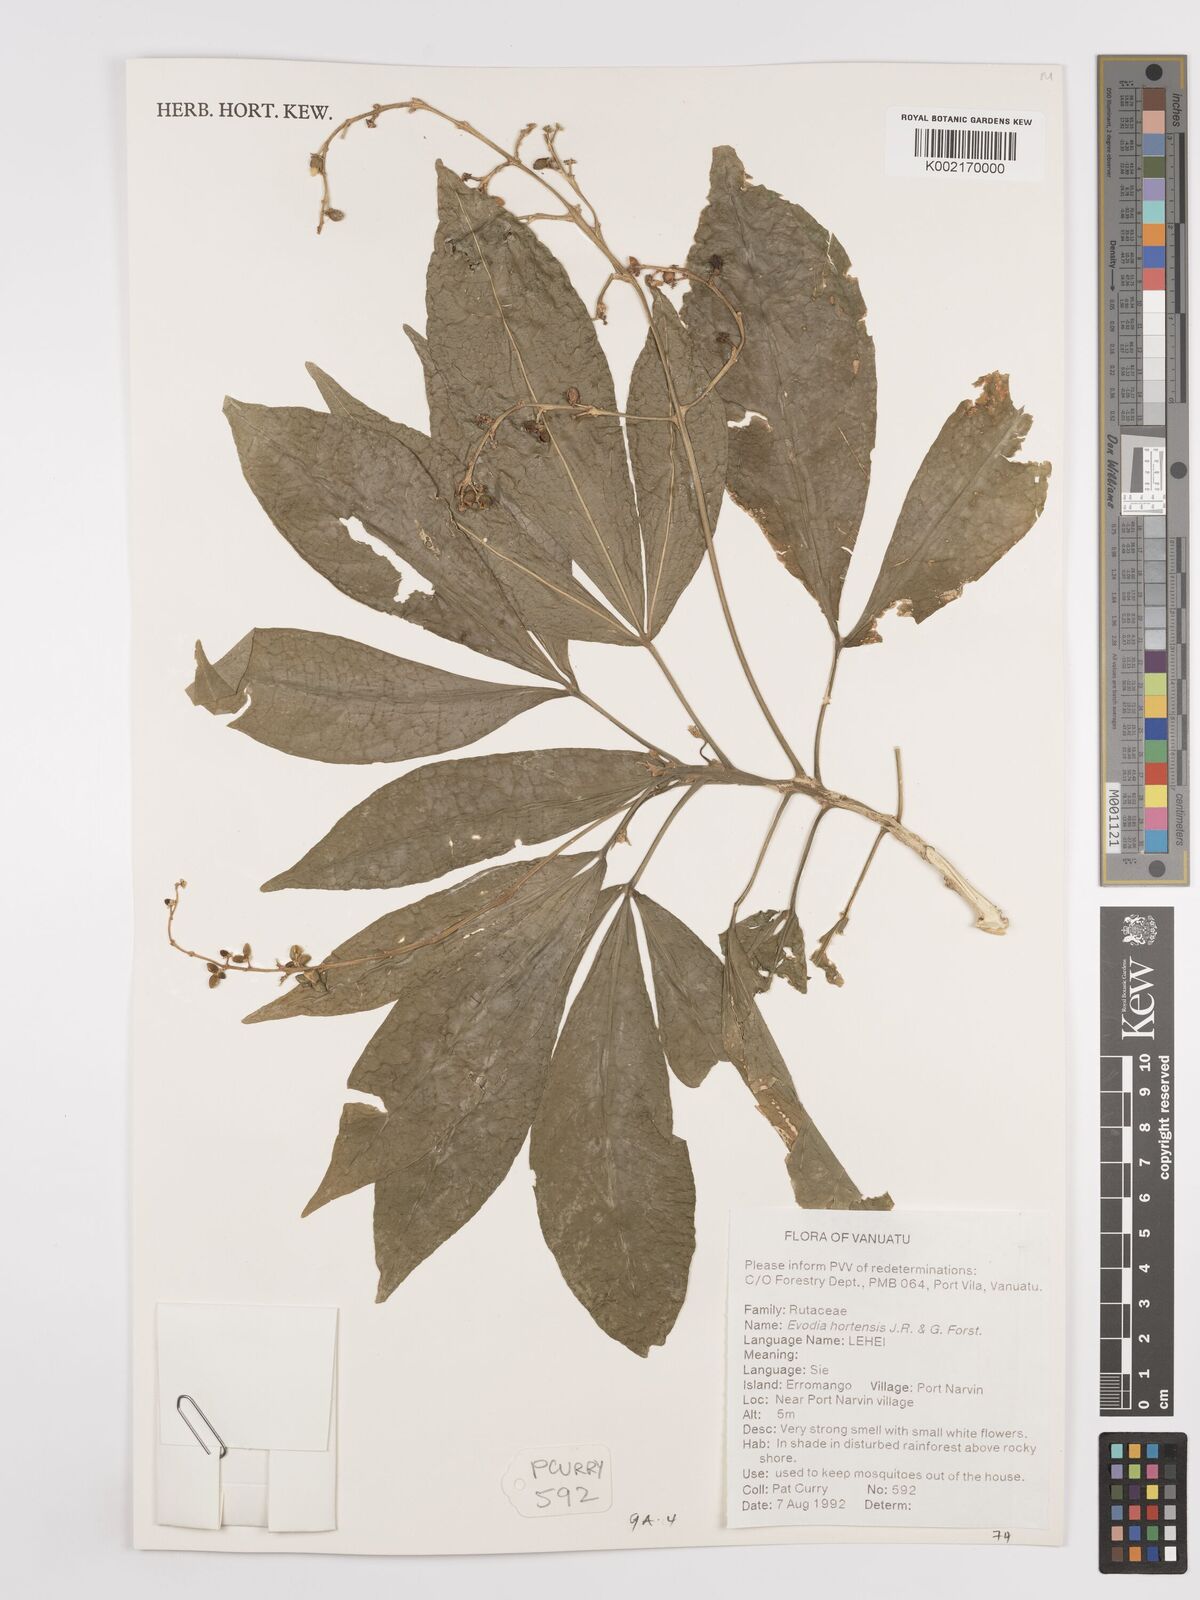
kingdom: Plantae
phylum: Tracheophyta
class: Magnoliopsida
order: Sapindales
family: Rutaceae
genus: Euodia
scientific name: Euodia hortensis
